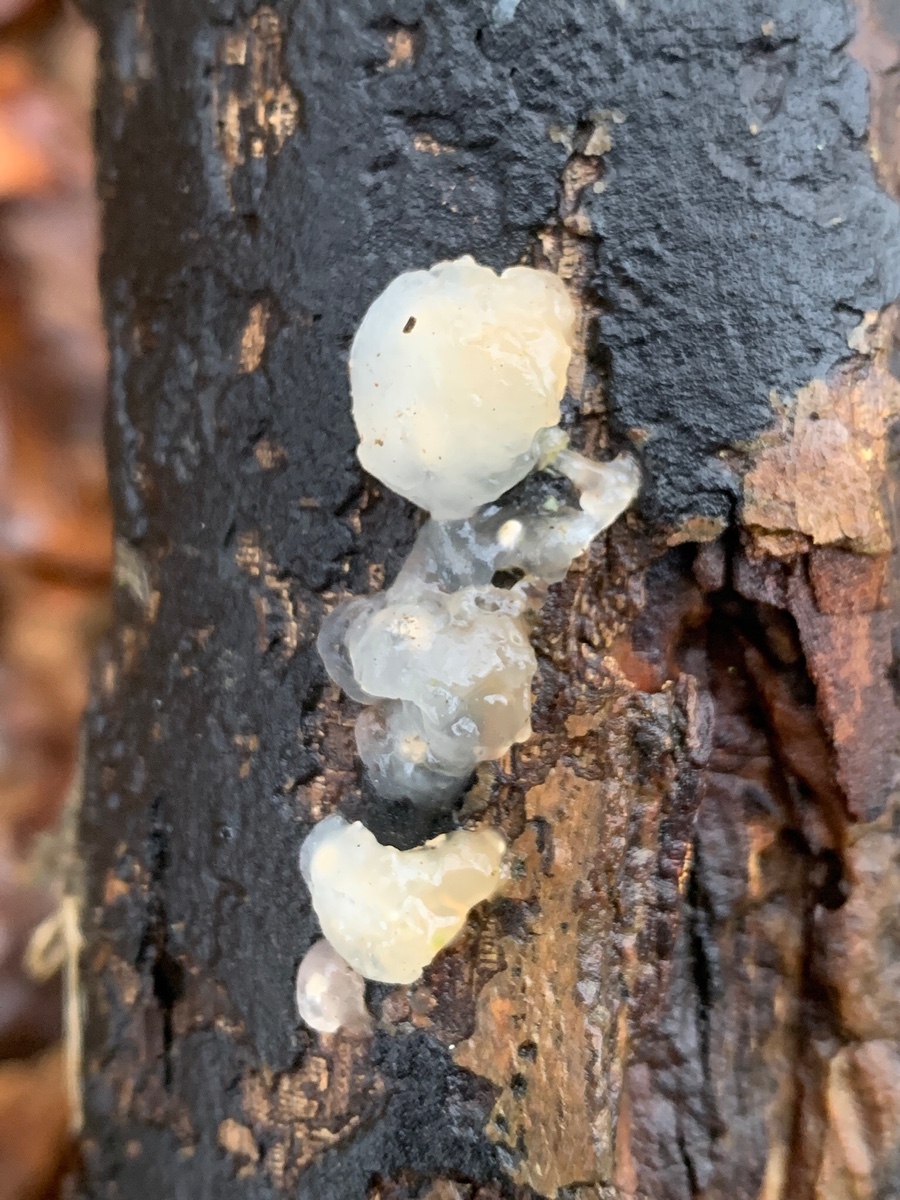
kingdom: Fungi
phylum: Basidiomycota
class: Agaricomycetes
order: Auriculariales
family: Hyaloriaceae
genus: Myxarium
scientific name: Myxarium nucleatum
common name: klar bævretop
